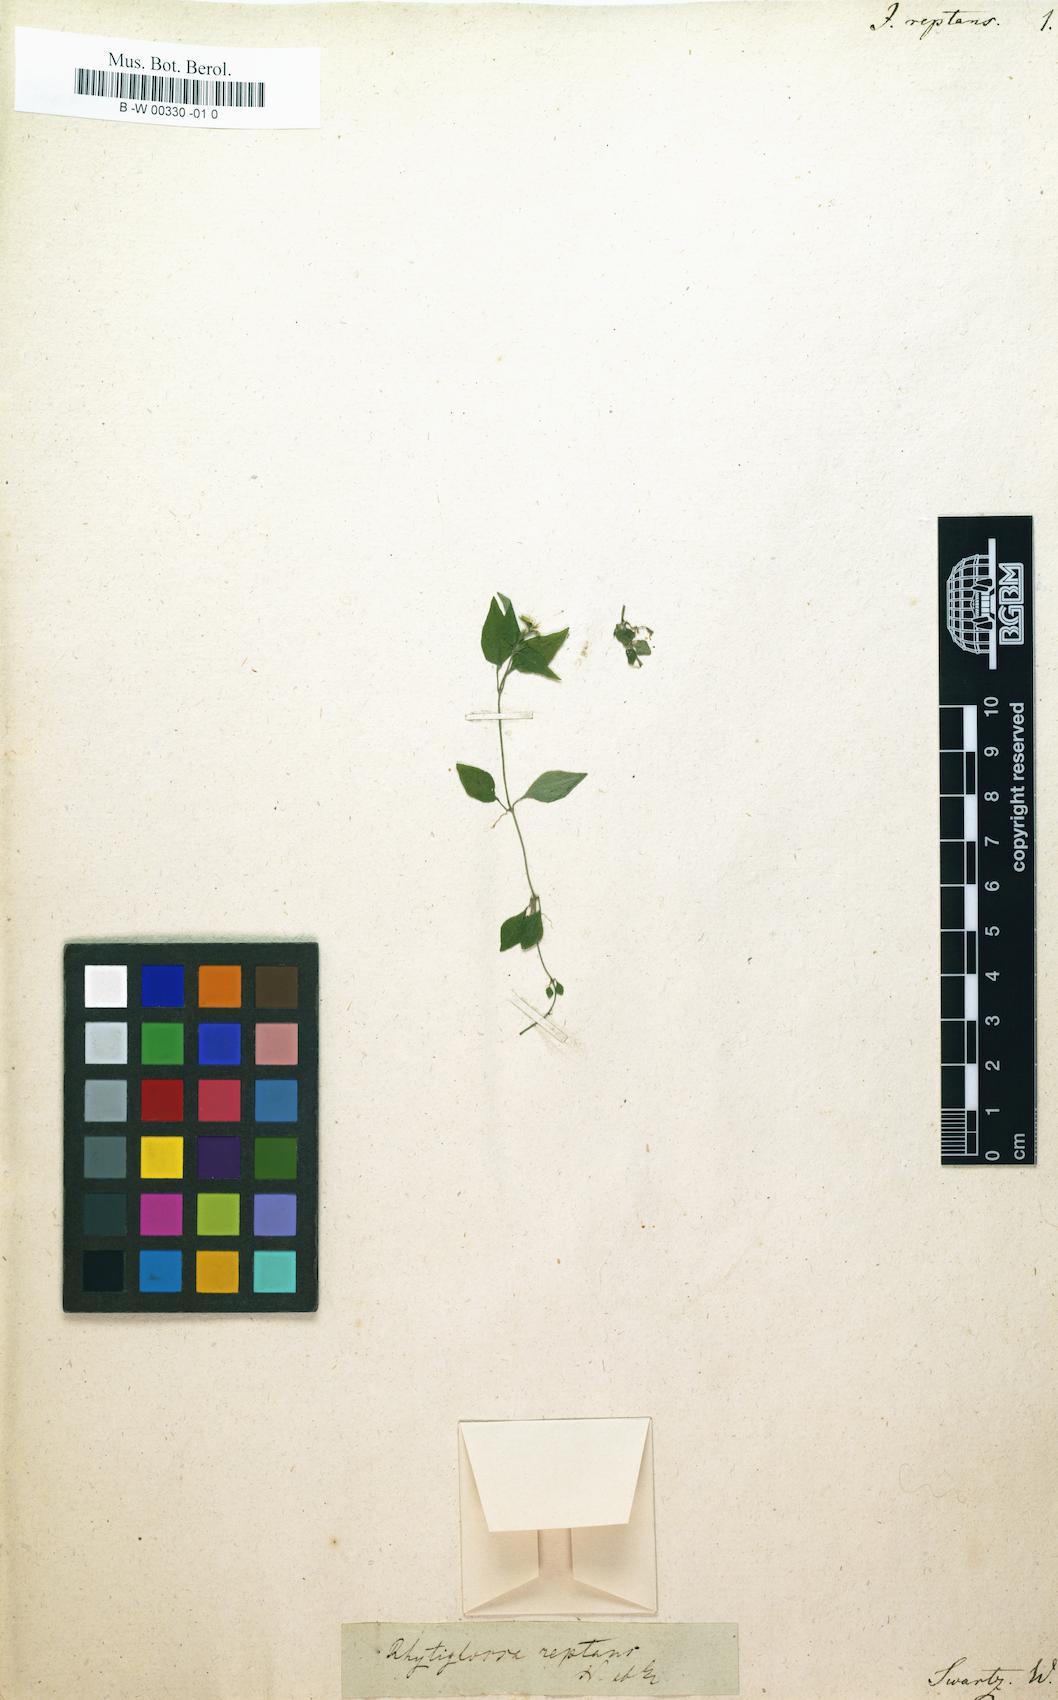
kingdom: Plantae
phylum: Tracheophyta
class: Magnoliopsida
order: Lamiales
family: Acanthaceae
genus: Dianthera
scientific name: Dianthera reptans
